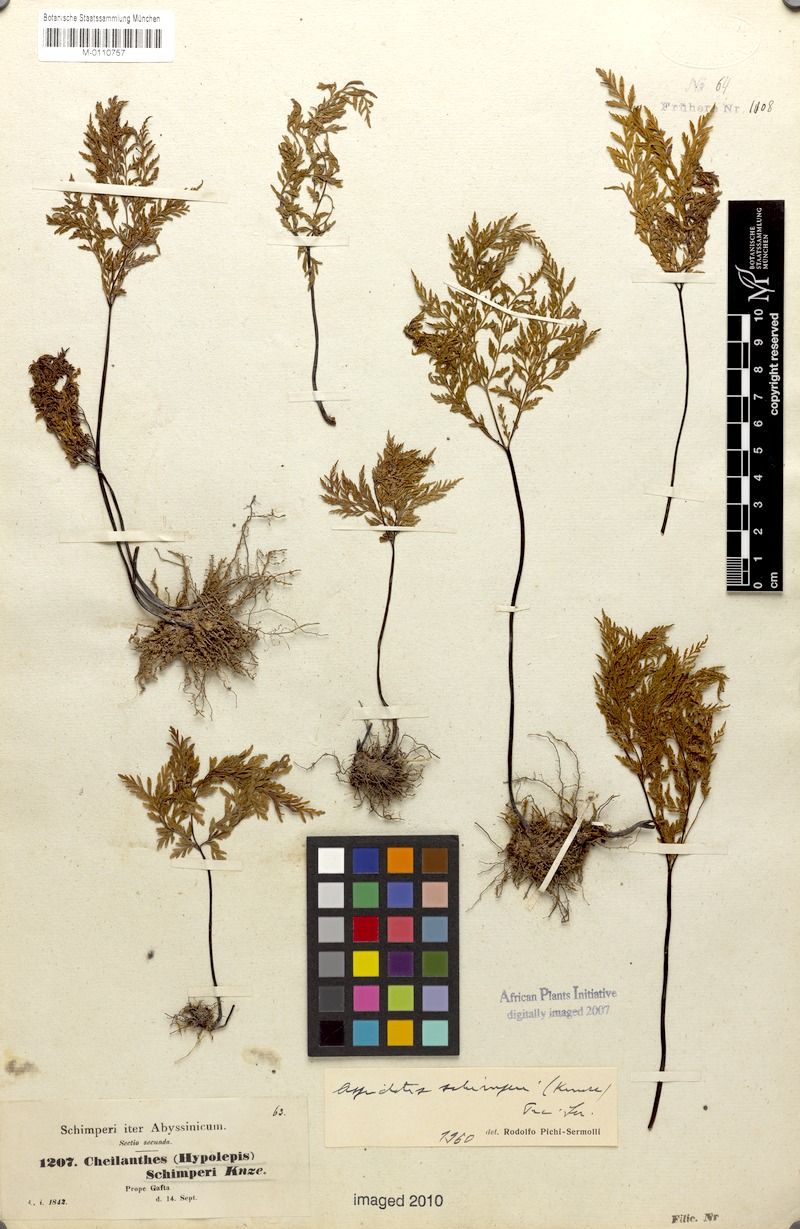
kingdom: Plantae
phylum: Tracheophyta
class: Polypodiopsida
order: Polypodiales
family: Pteridaceae
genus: Cheilanthes
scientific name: Cheilanthes schimperi
